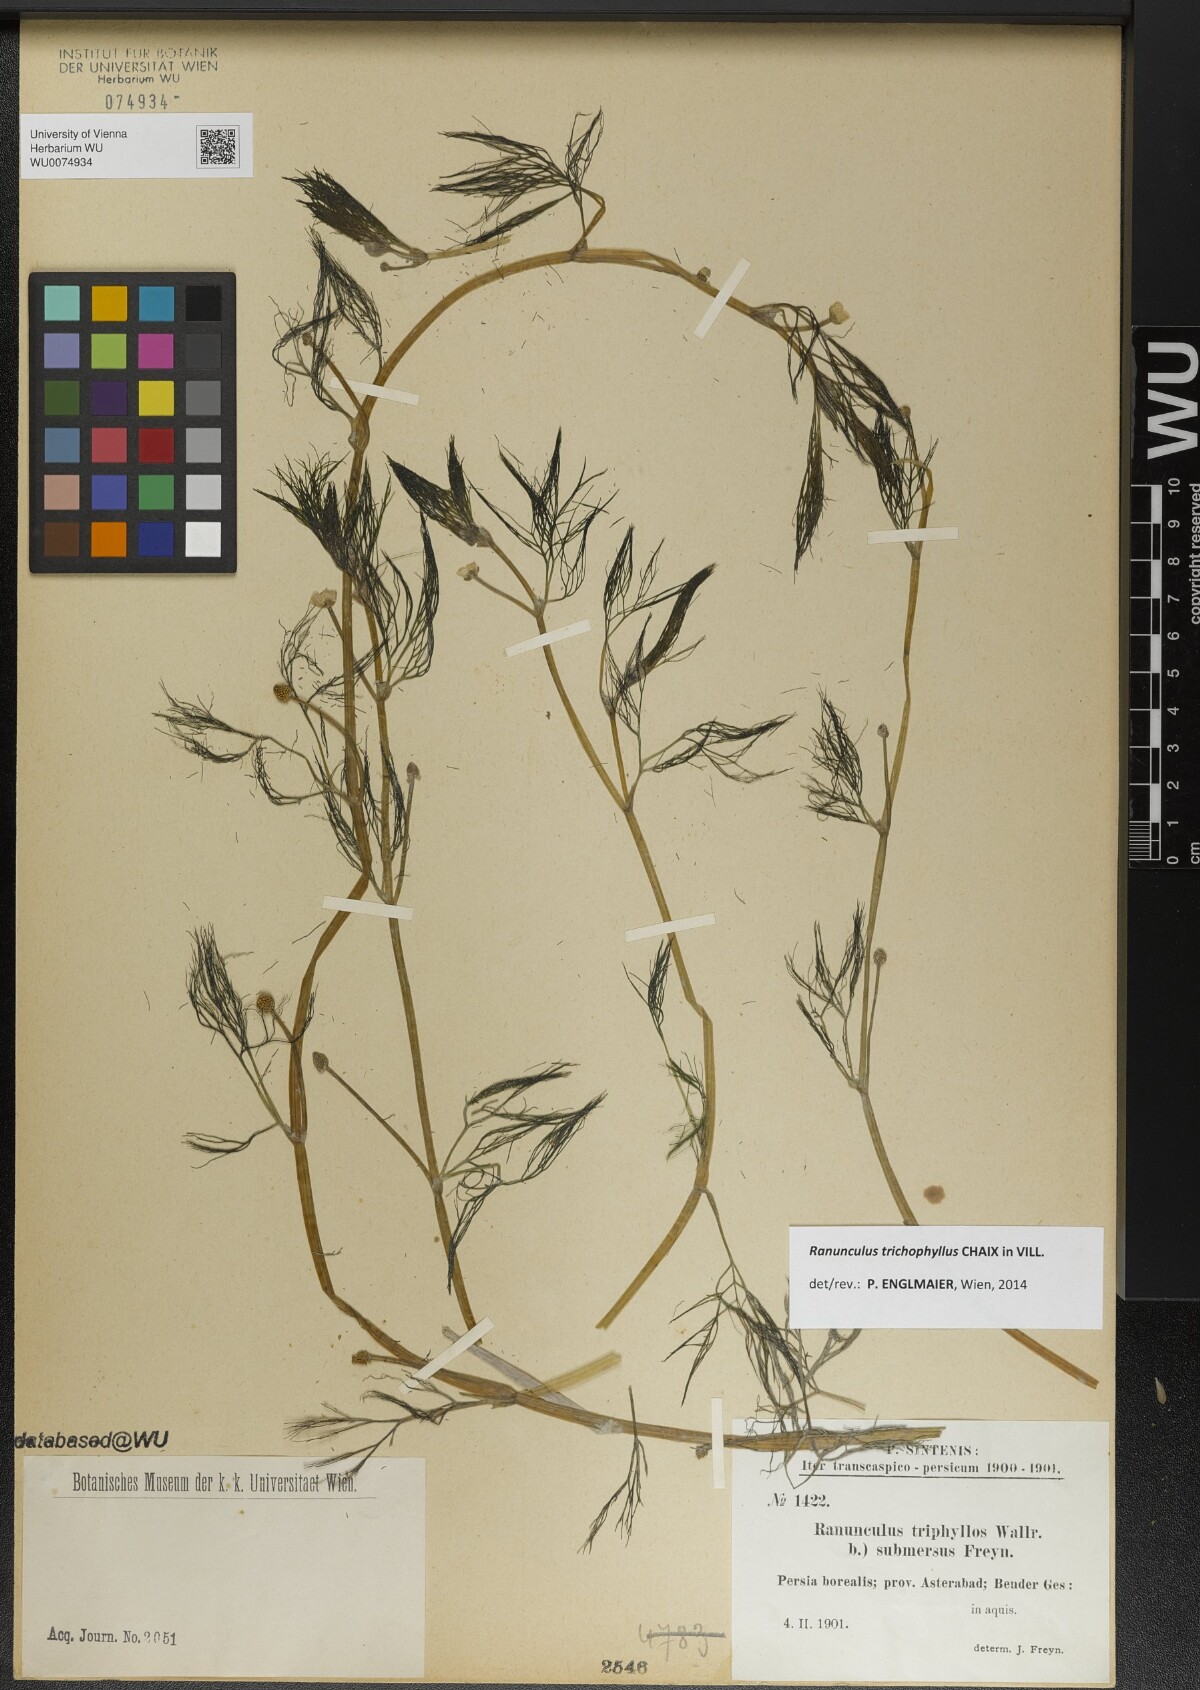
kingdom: Plantae
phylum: Tracheophyta
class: Magnoliopsida
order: Ranunculales
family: Ranunculaceae
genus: Ranunculus
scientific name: Ranunculus trichophyllus
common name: Thread-leaved water-crowfoot
